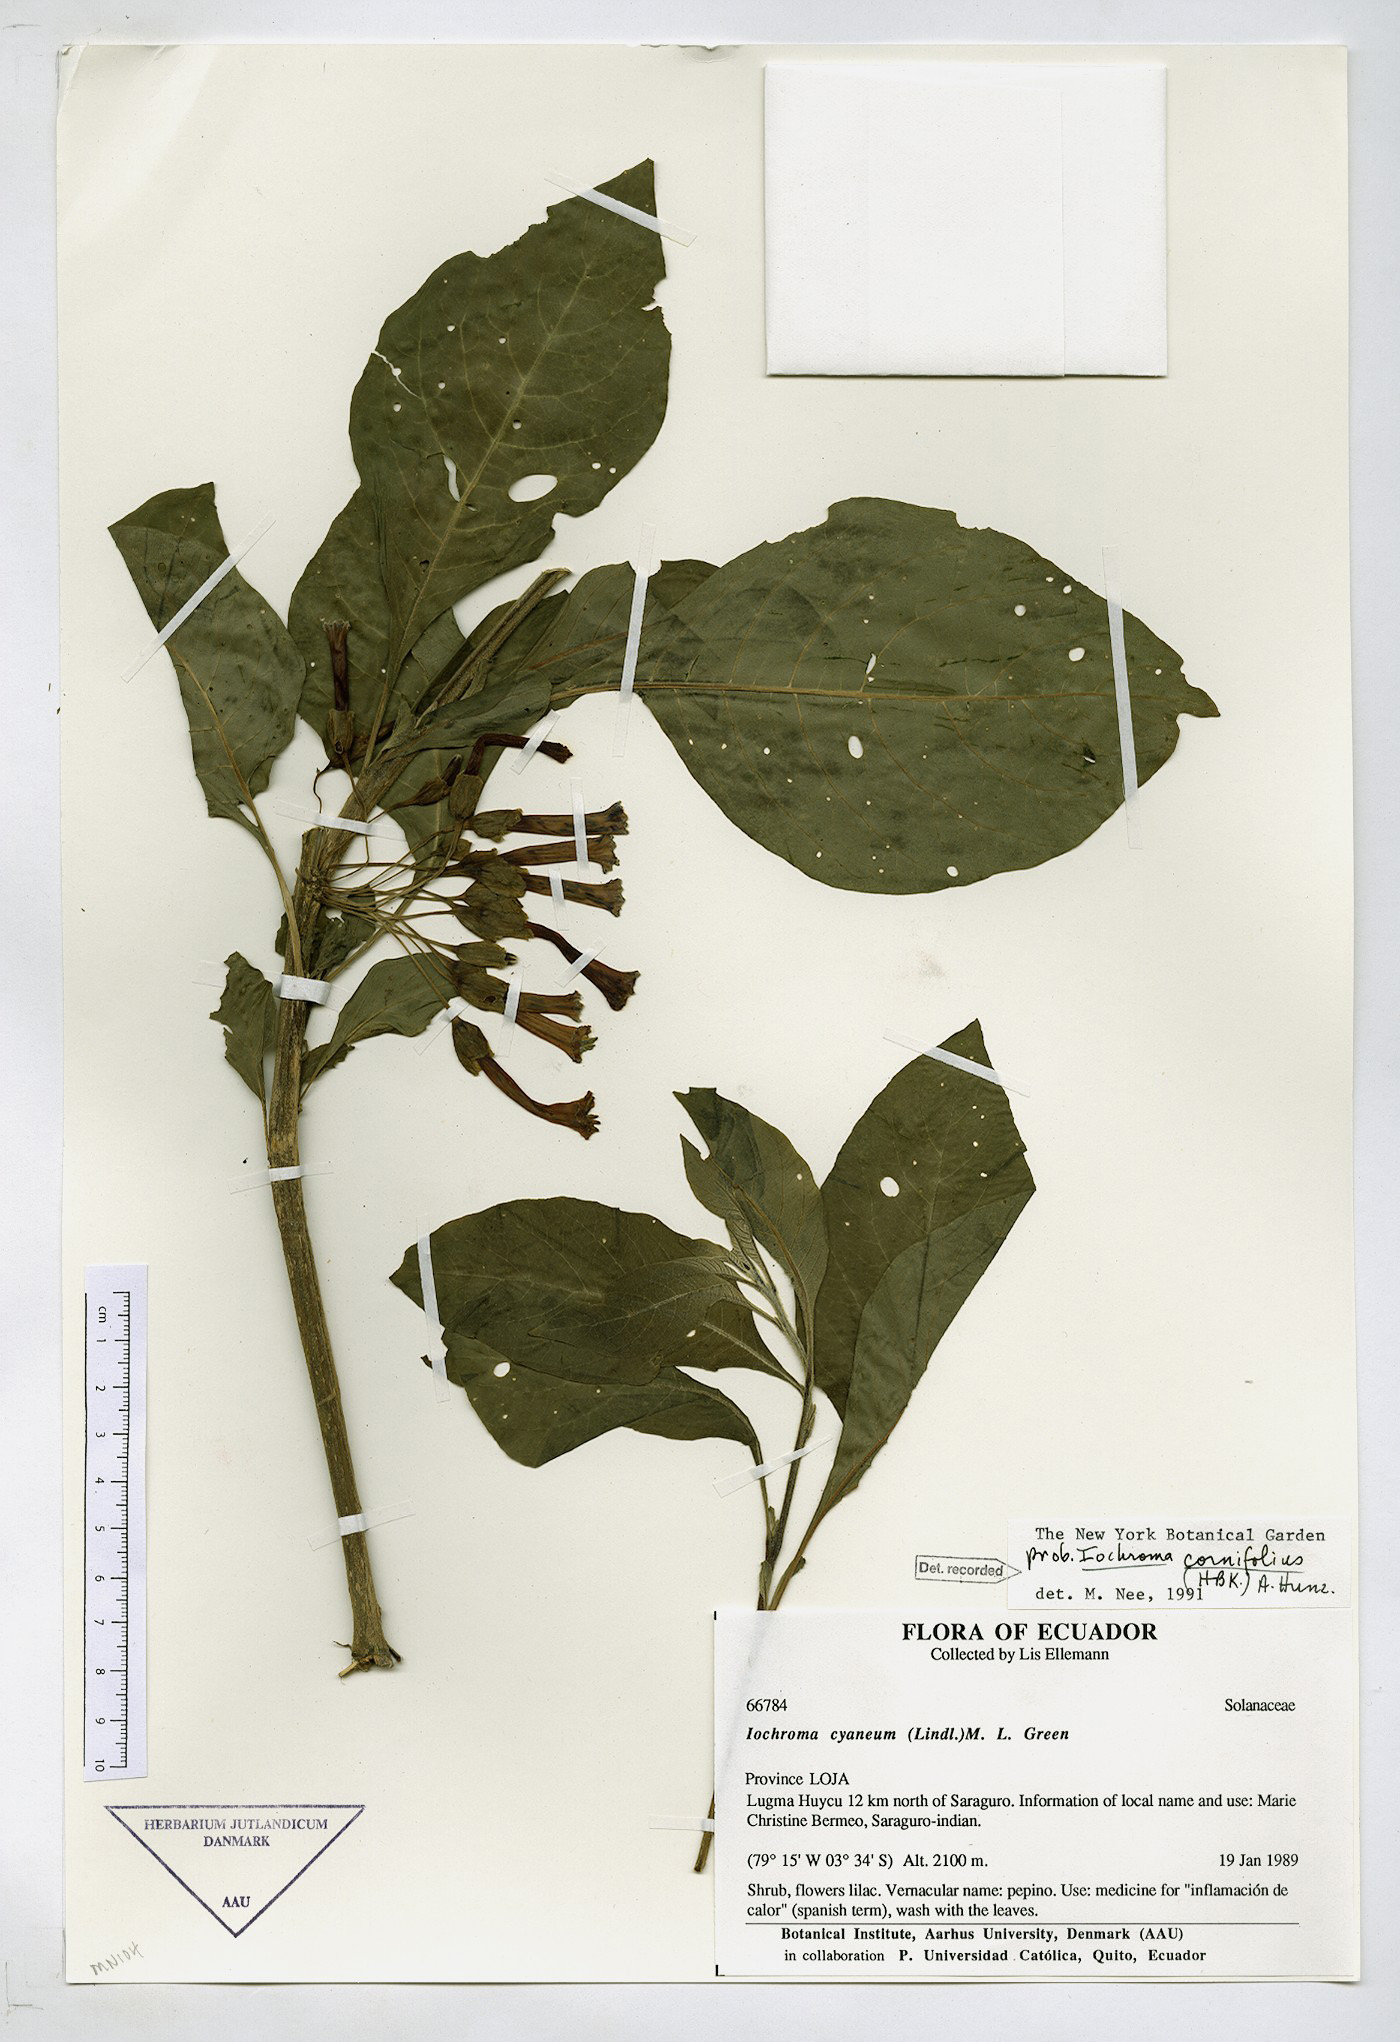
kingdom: Plantae
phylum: Tracheophyta
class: Magnoliopsida
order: Solanales
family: Solanaceae
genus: Iochroma
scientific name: Iochroma cornifolium
